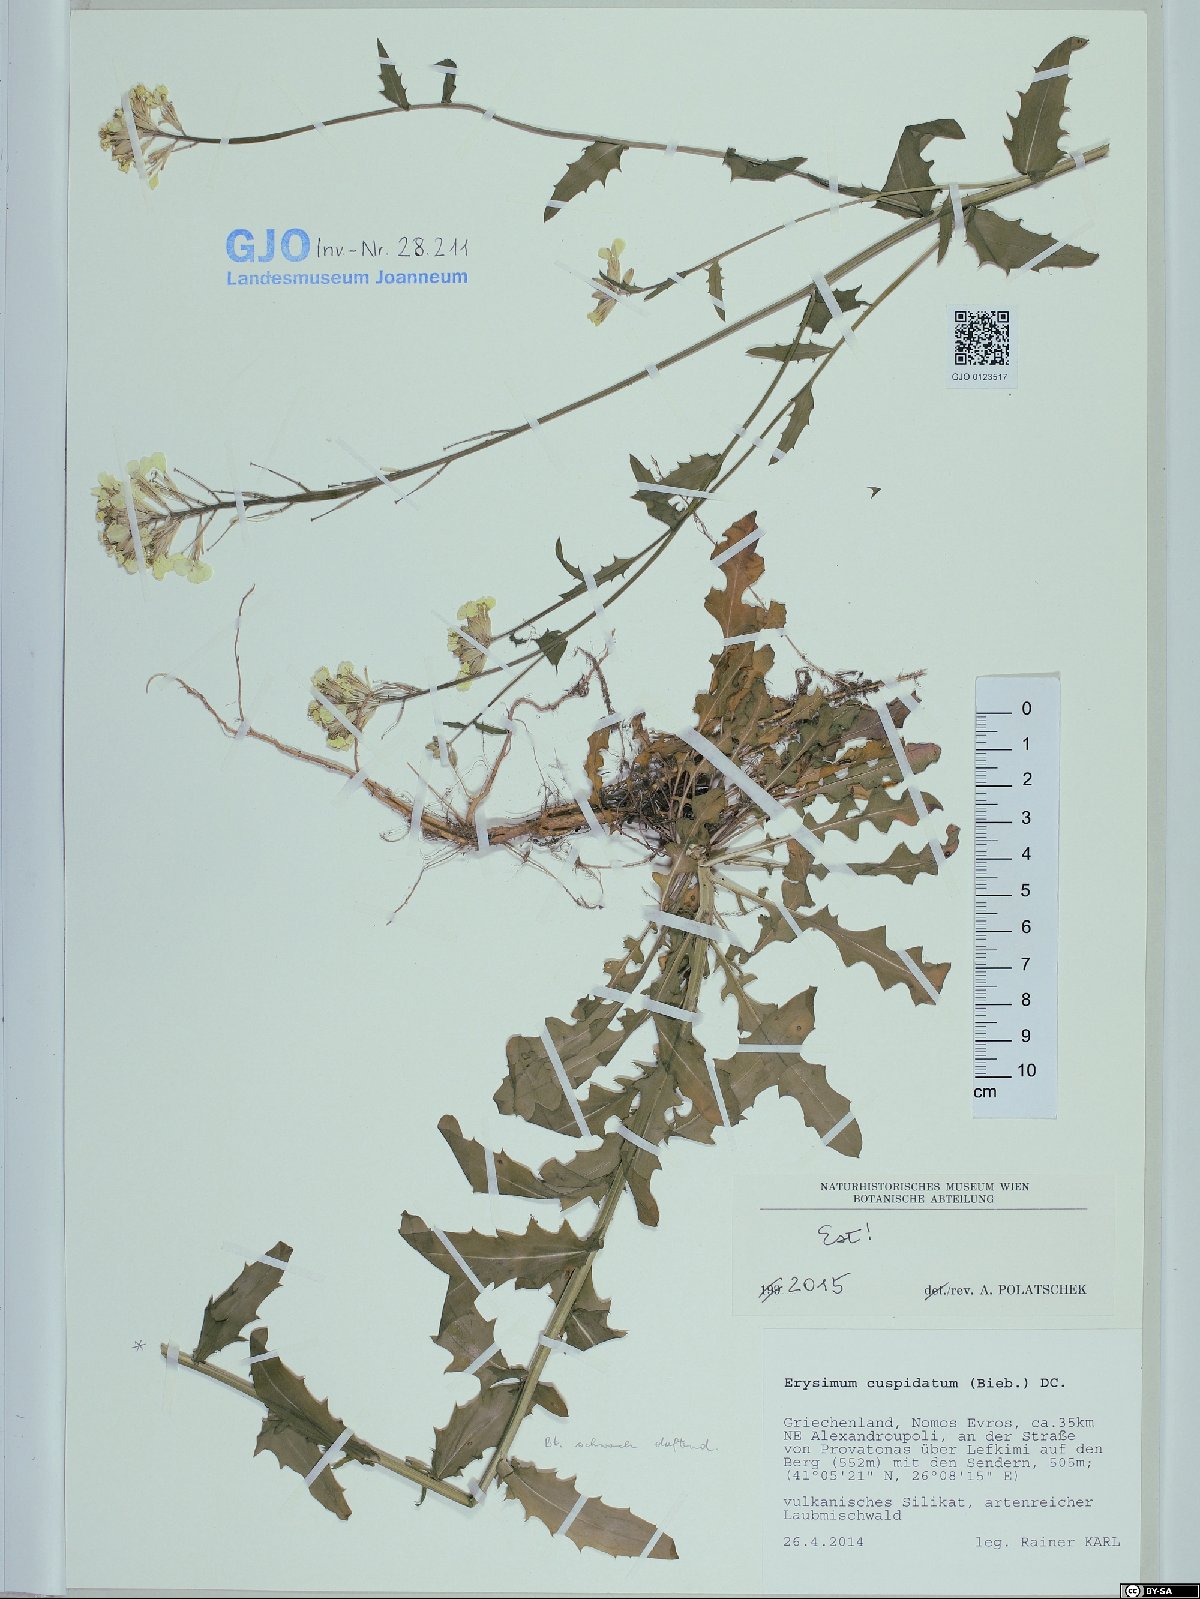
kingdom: Plantae
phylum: Tracheophyta
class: Magnoliopsida
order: Brassicales
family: Brassicaceae
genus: Erysimum
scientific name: Erysimum cuspidatum
